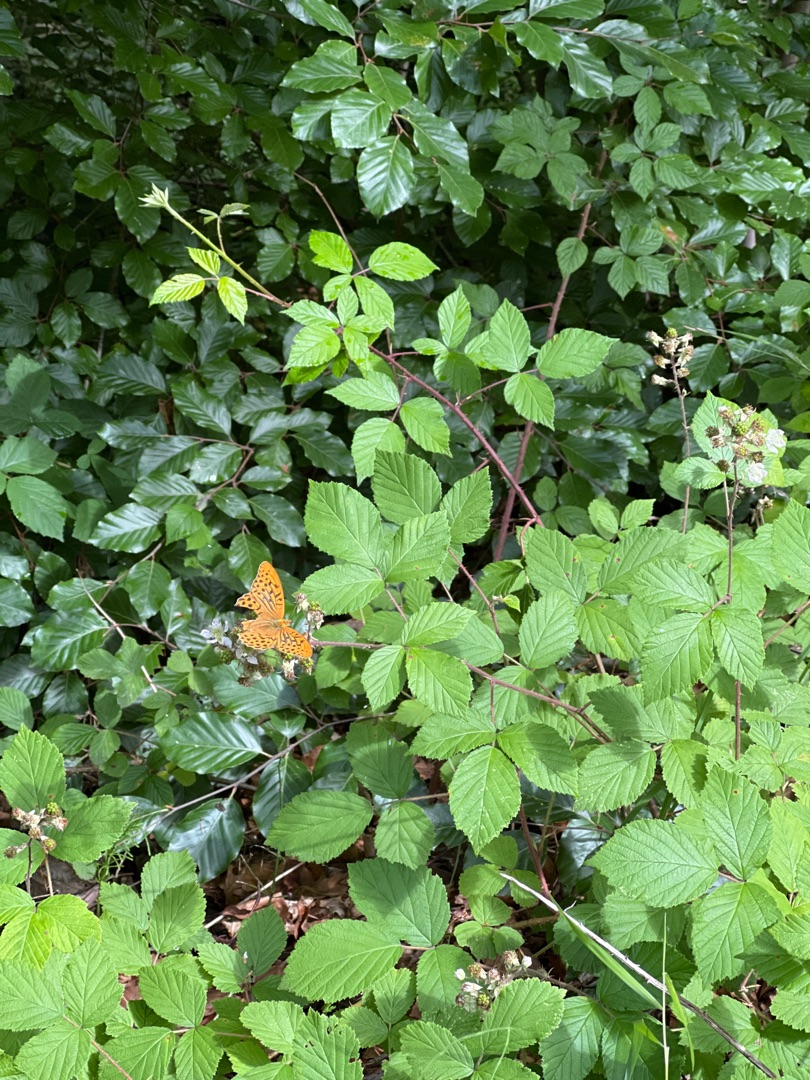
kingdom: Animalia
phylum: Arthropoda
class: Insecta
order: Lepidoptera
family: Nymphalidae
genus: Argynnis
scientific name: Argynnis paphia
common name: Kejserkåbe
